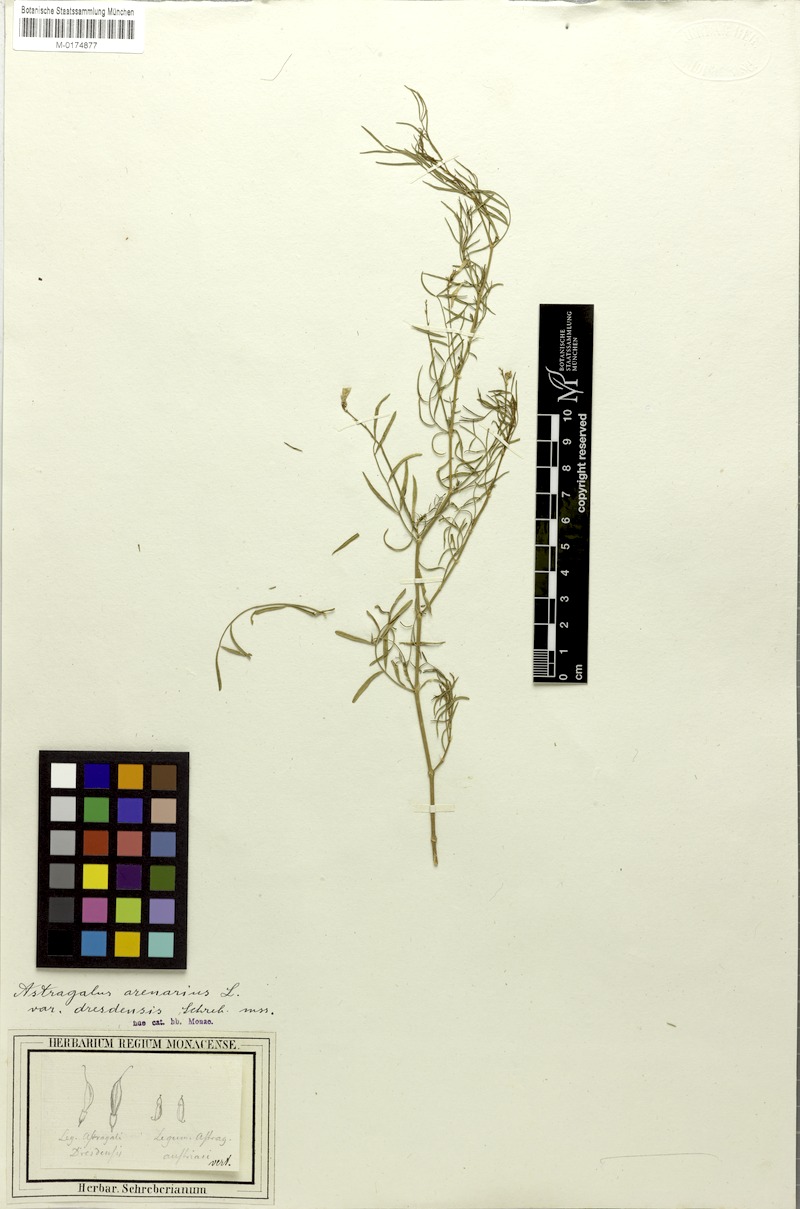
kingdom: Plantae
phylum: Tracheophyta
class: Magnoliopsida
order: Fabales
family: Fabaceae
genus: Astragalus
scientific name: Astragalus arenarius
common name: Arenarious milk-vetch
